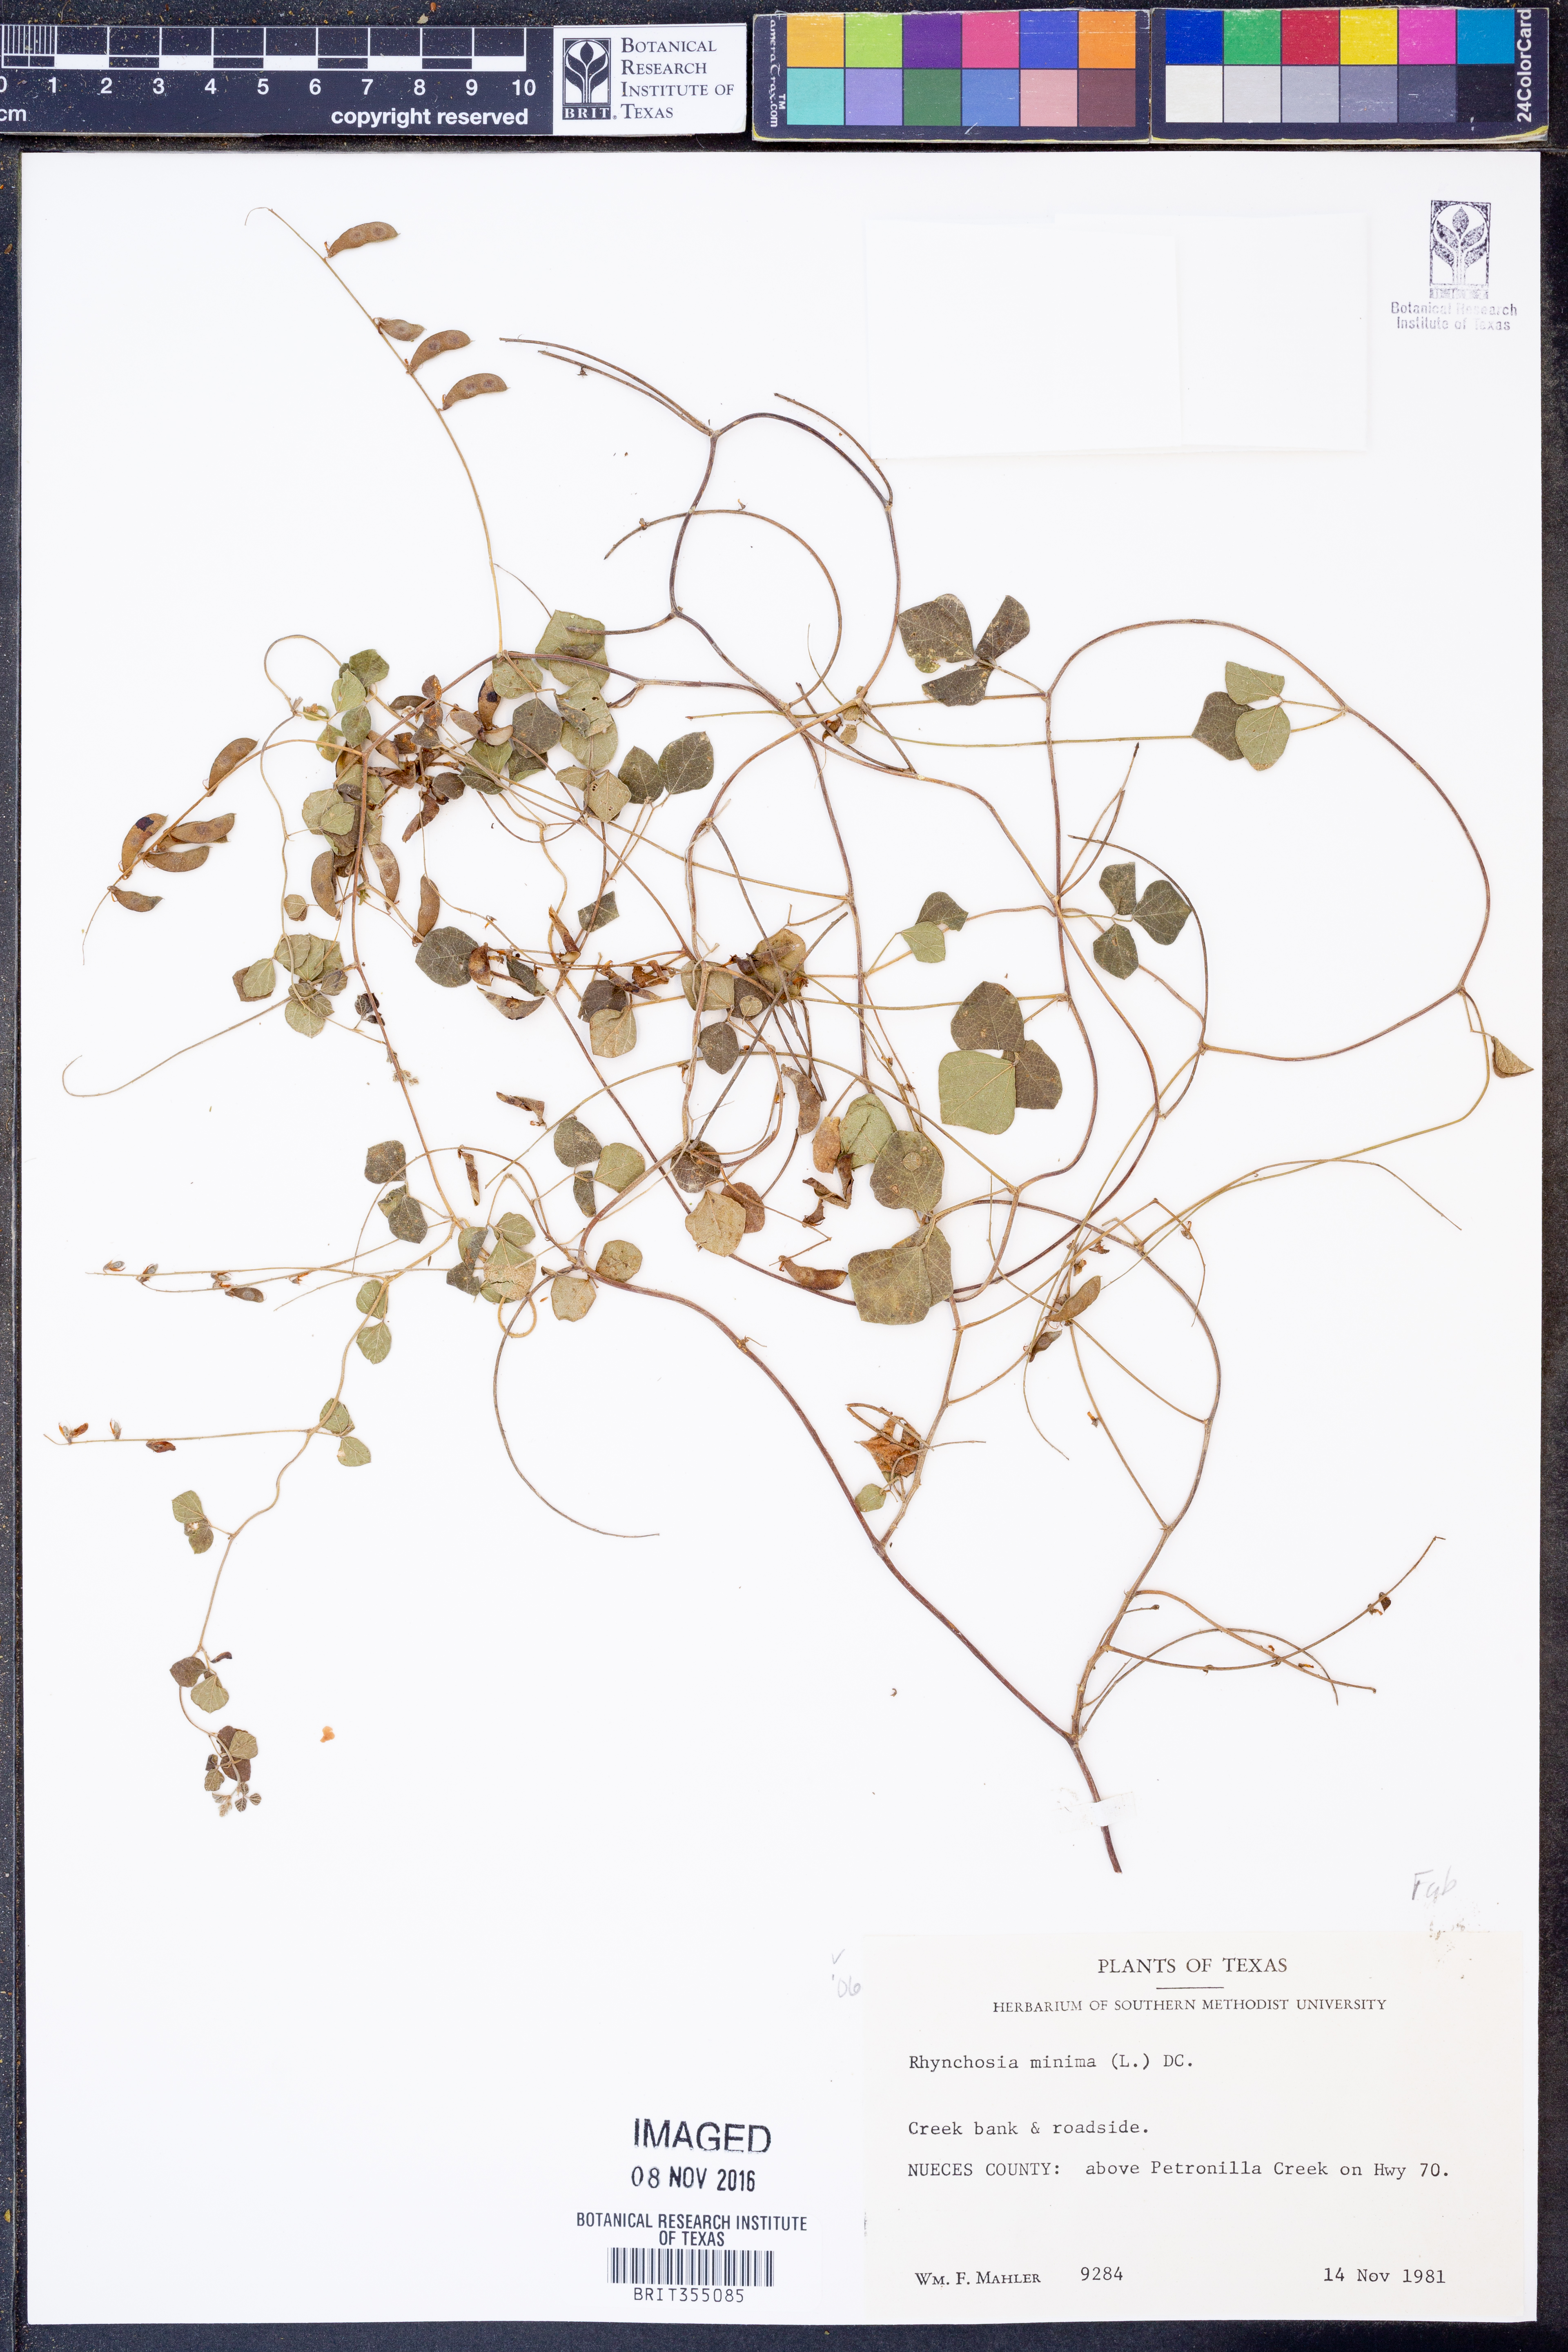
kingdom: Plantae
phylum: Tracheophyta
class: Magnoliopsida
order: Fabales
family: Fabaceae
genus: Rhynchosia
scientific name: Rhynchosia minima
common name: Least snoutbean
